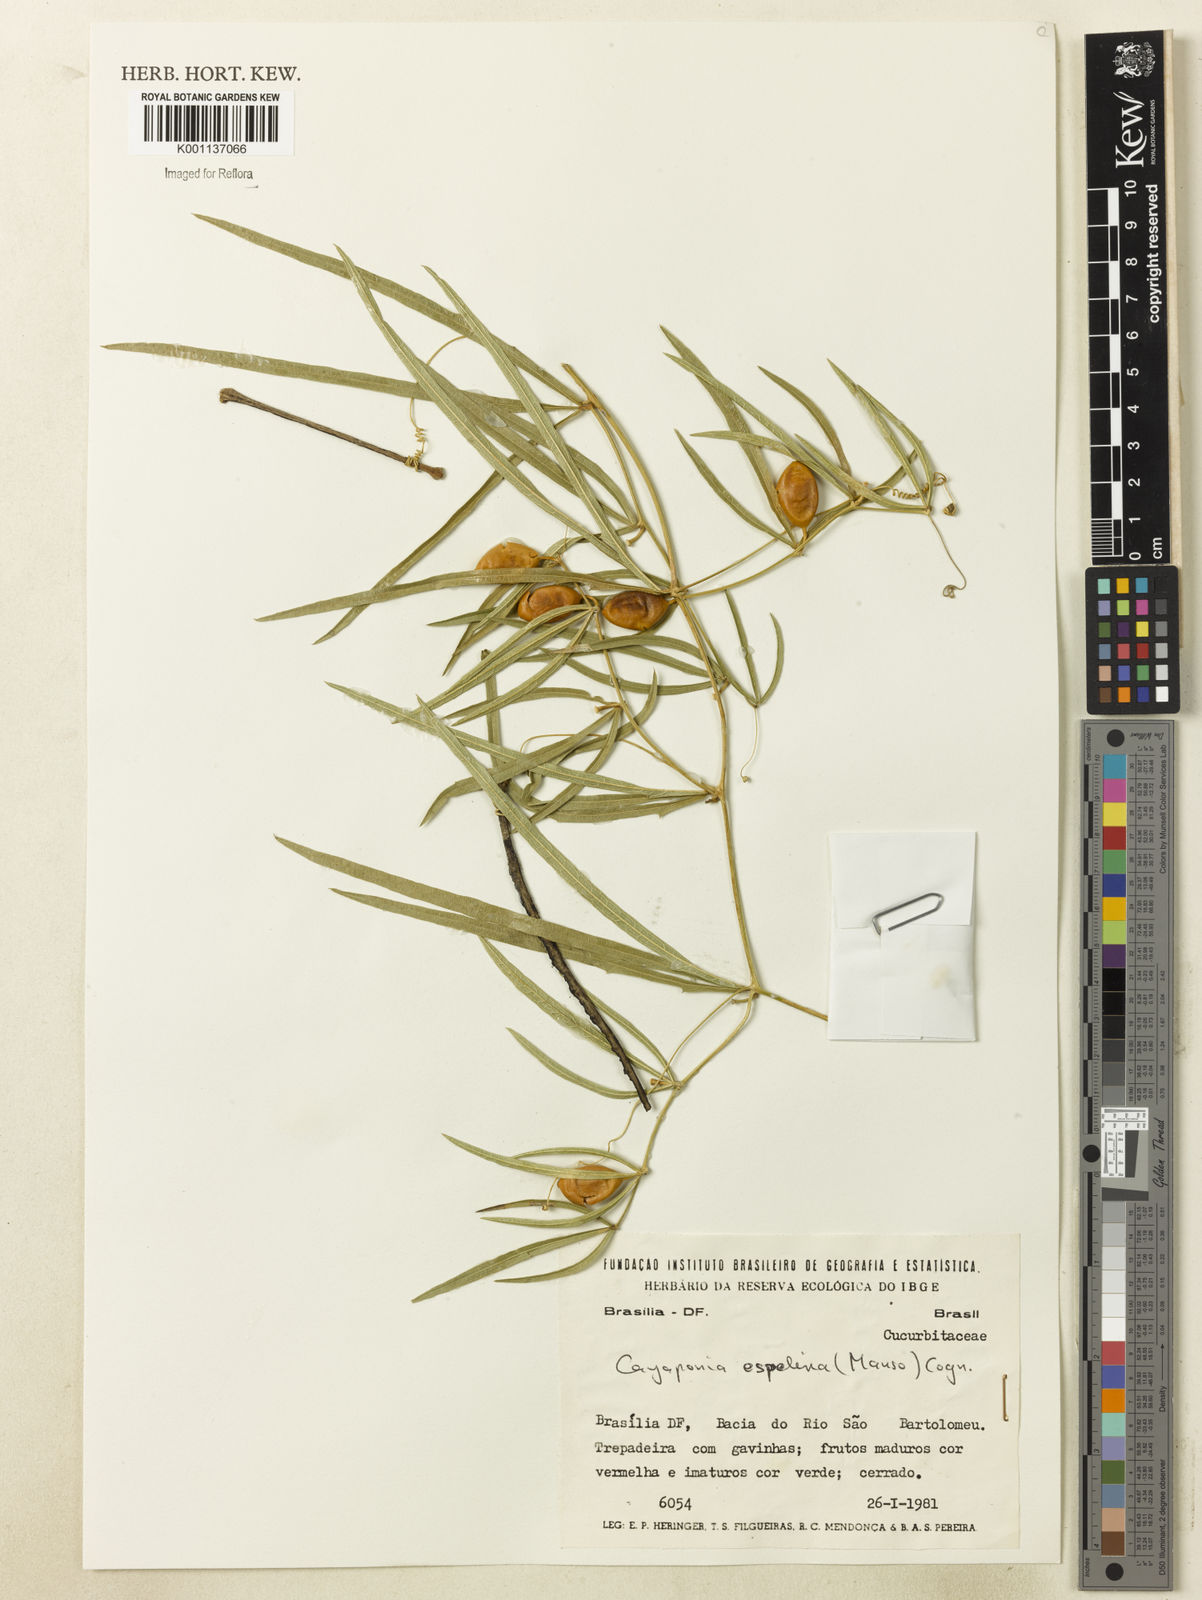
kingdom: Plantae
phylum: Tracheophyta
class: Magnoliopsida
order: Cucurbitales
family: Cucurbitaceae
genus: Cayaponia
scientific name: Cayaponia espelina
